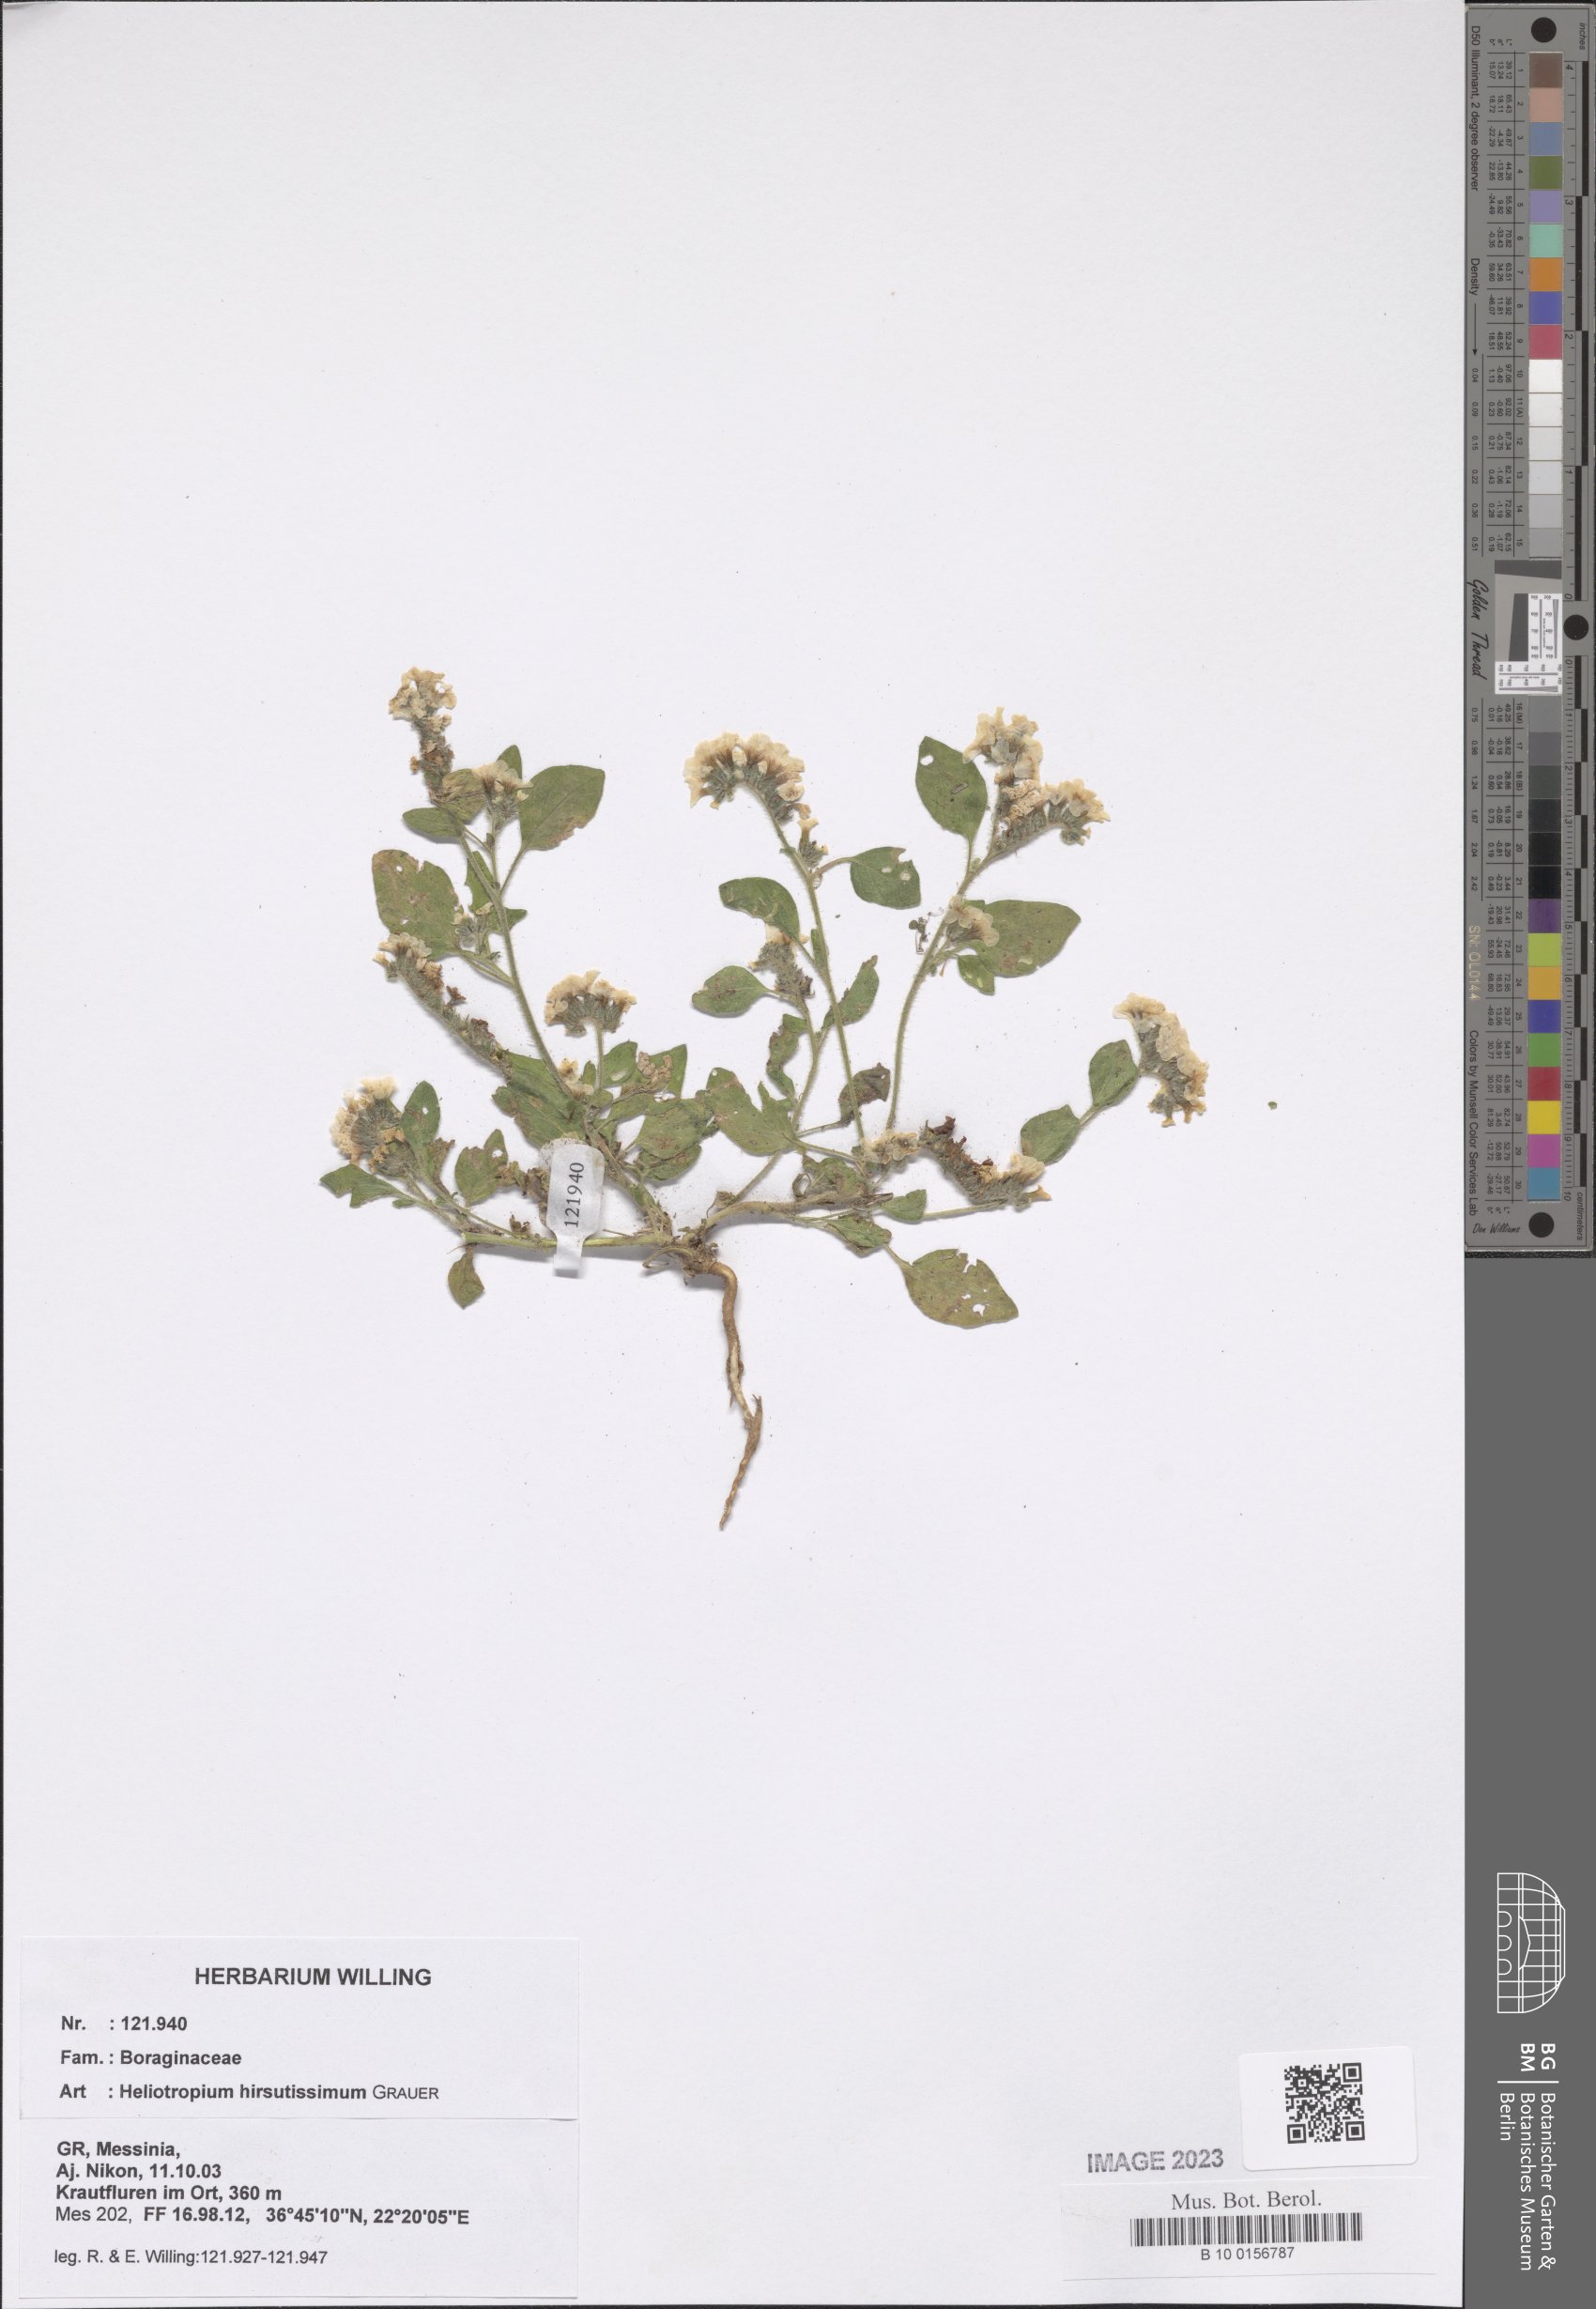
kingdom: Plantae
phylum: Tracheophyta
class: Magnoliopsida
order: Boraginales
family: Heliotropiaceae
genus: Heliotropium
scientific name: Heliotropium hirsutissimum
